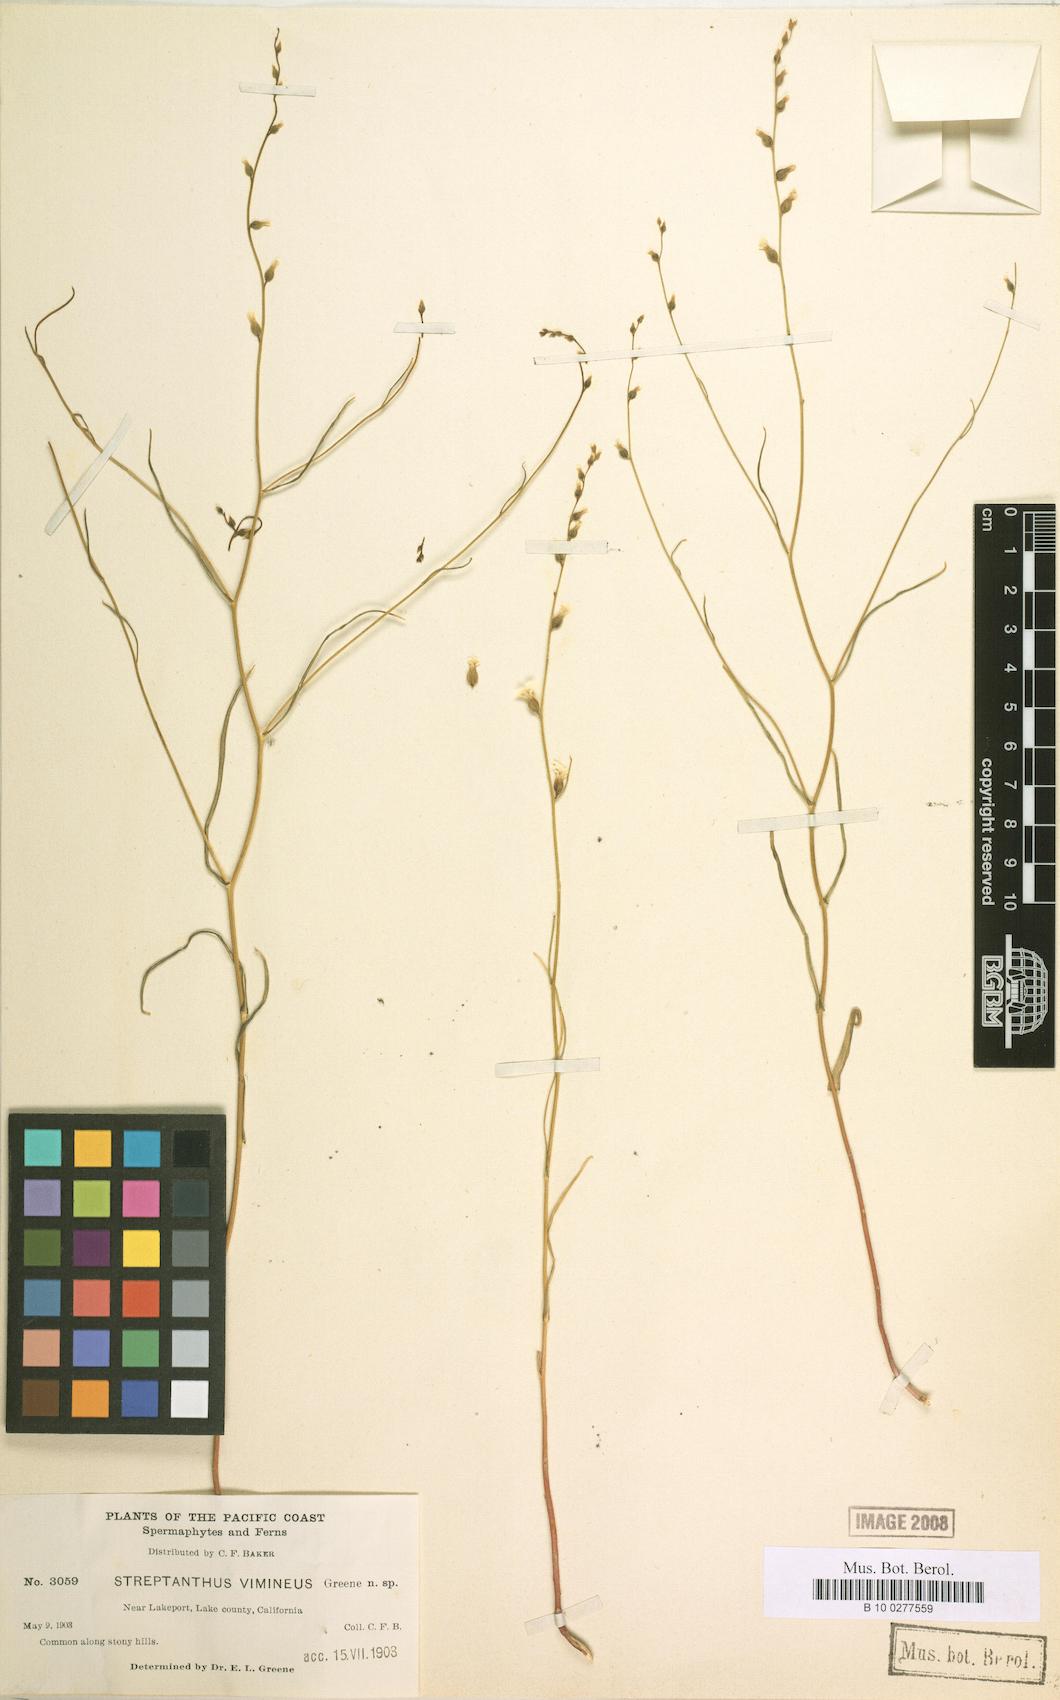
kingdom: Plantae
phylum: Tracheophyta
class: Magnoliopsida
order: Brassicales
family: Brassicaceae
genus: Streptanthus
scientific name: Streptanthus vimineus
